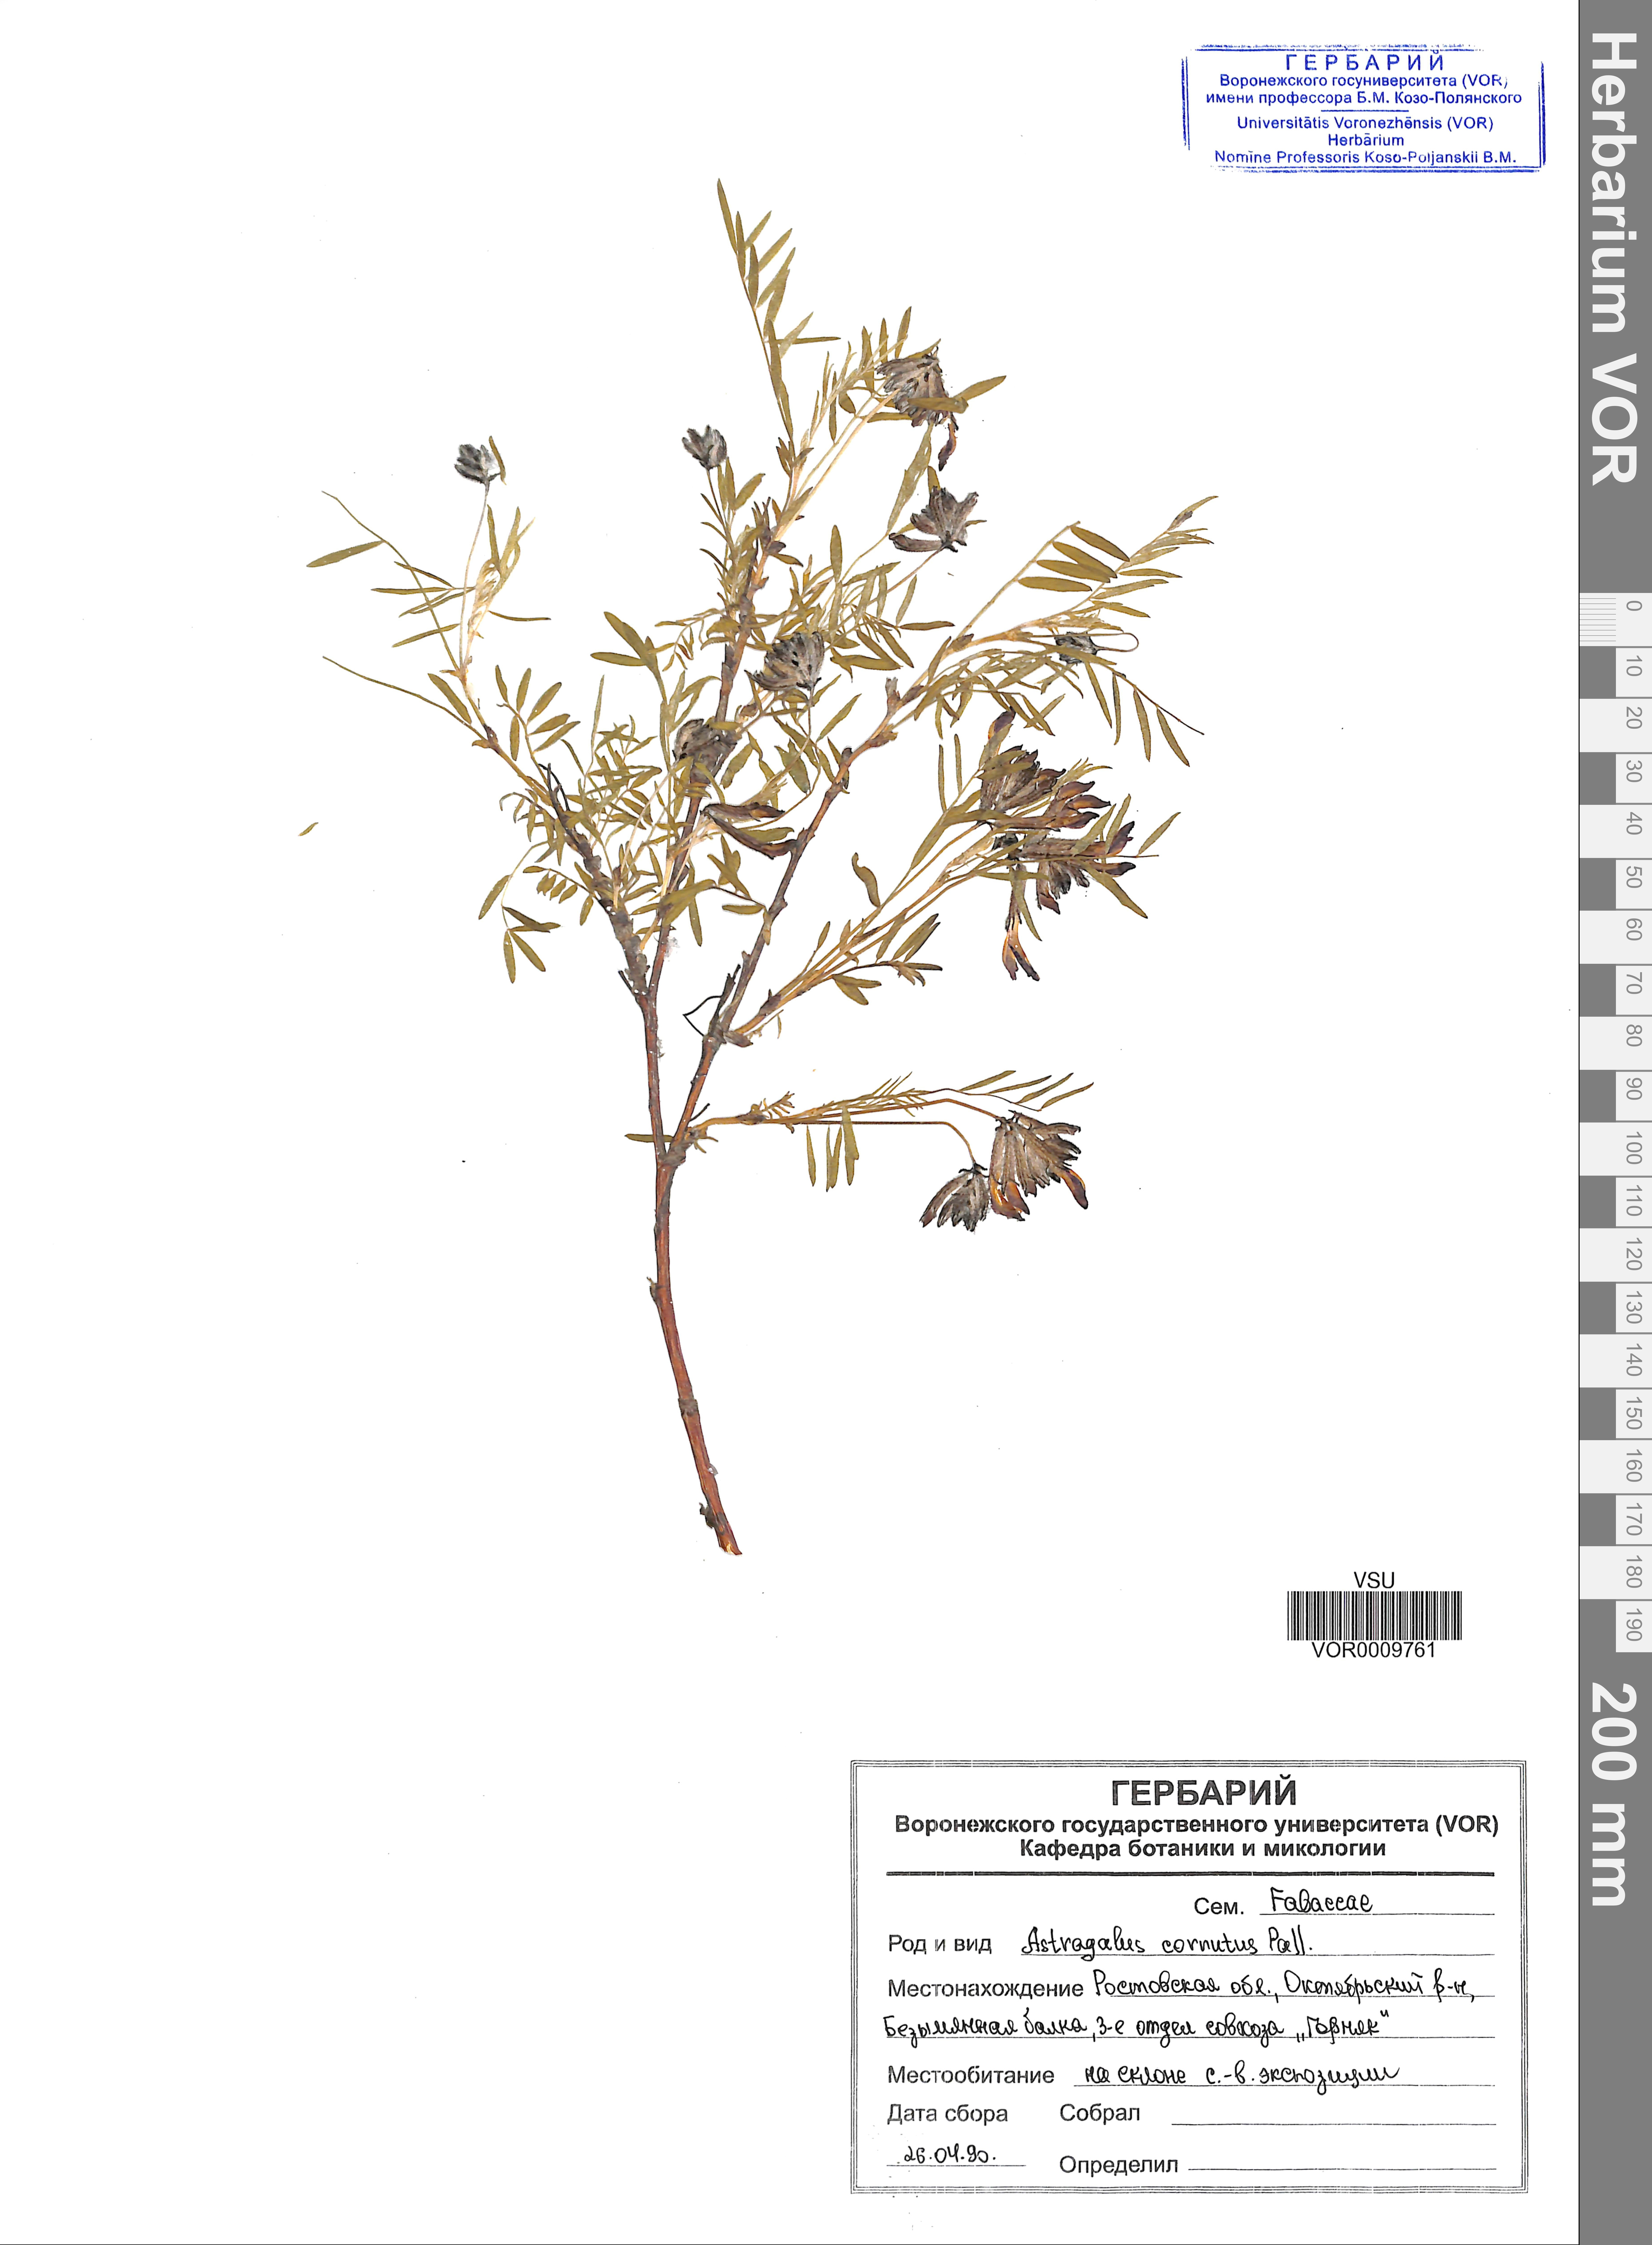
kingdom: Plantae
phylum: Tracheophyta
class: Magnoliopsida
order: Fabales
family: Fabaceae
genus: Astragalus
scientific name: Astragalus cornutus
